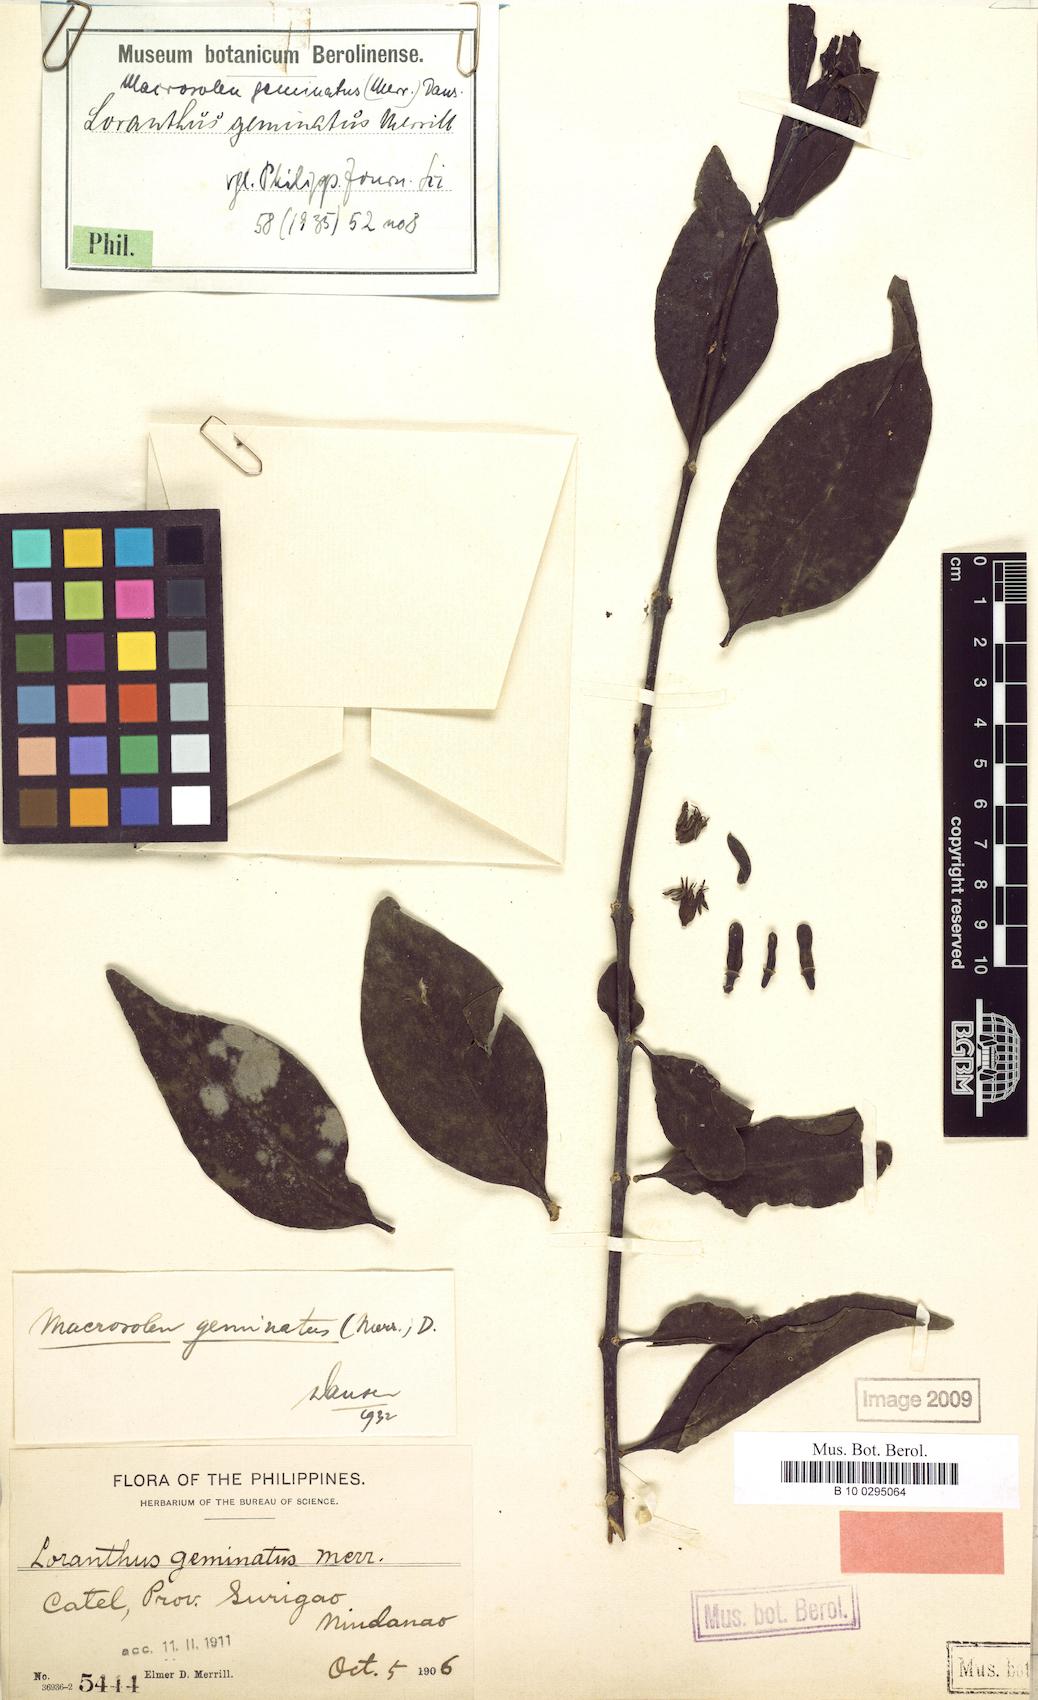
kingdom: Plantae
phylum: Tracheophyta
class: Magnoliopsida
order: Santalales
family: Loranthaceae
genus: Macrosolen
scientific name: Macrosolen geminatus
